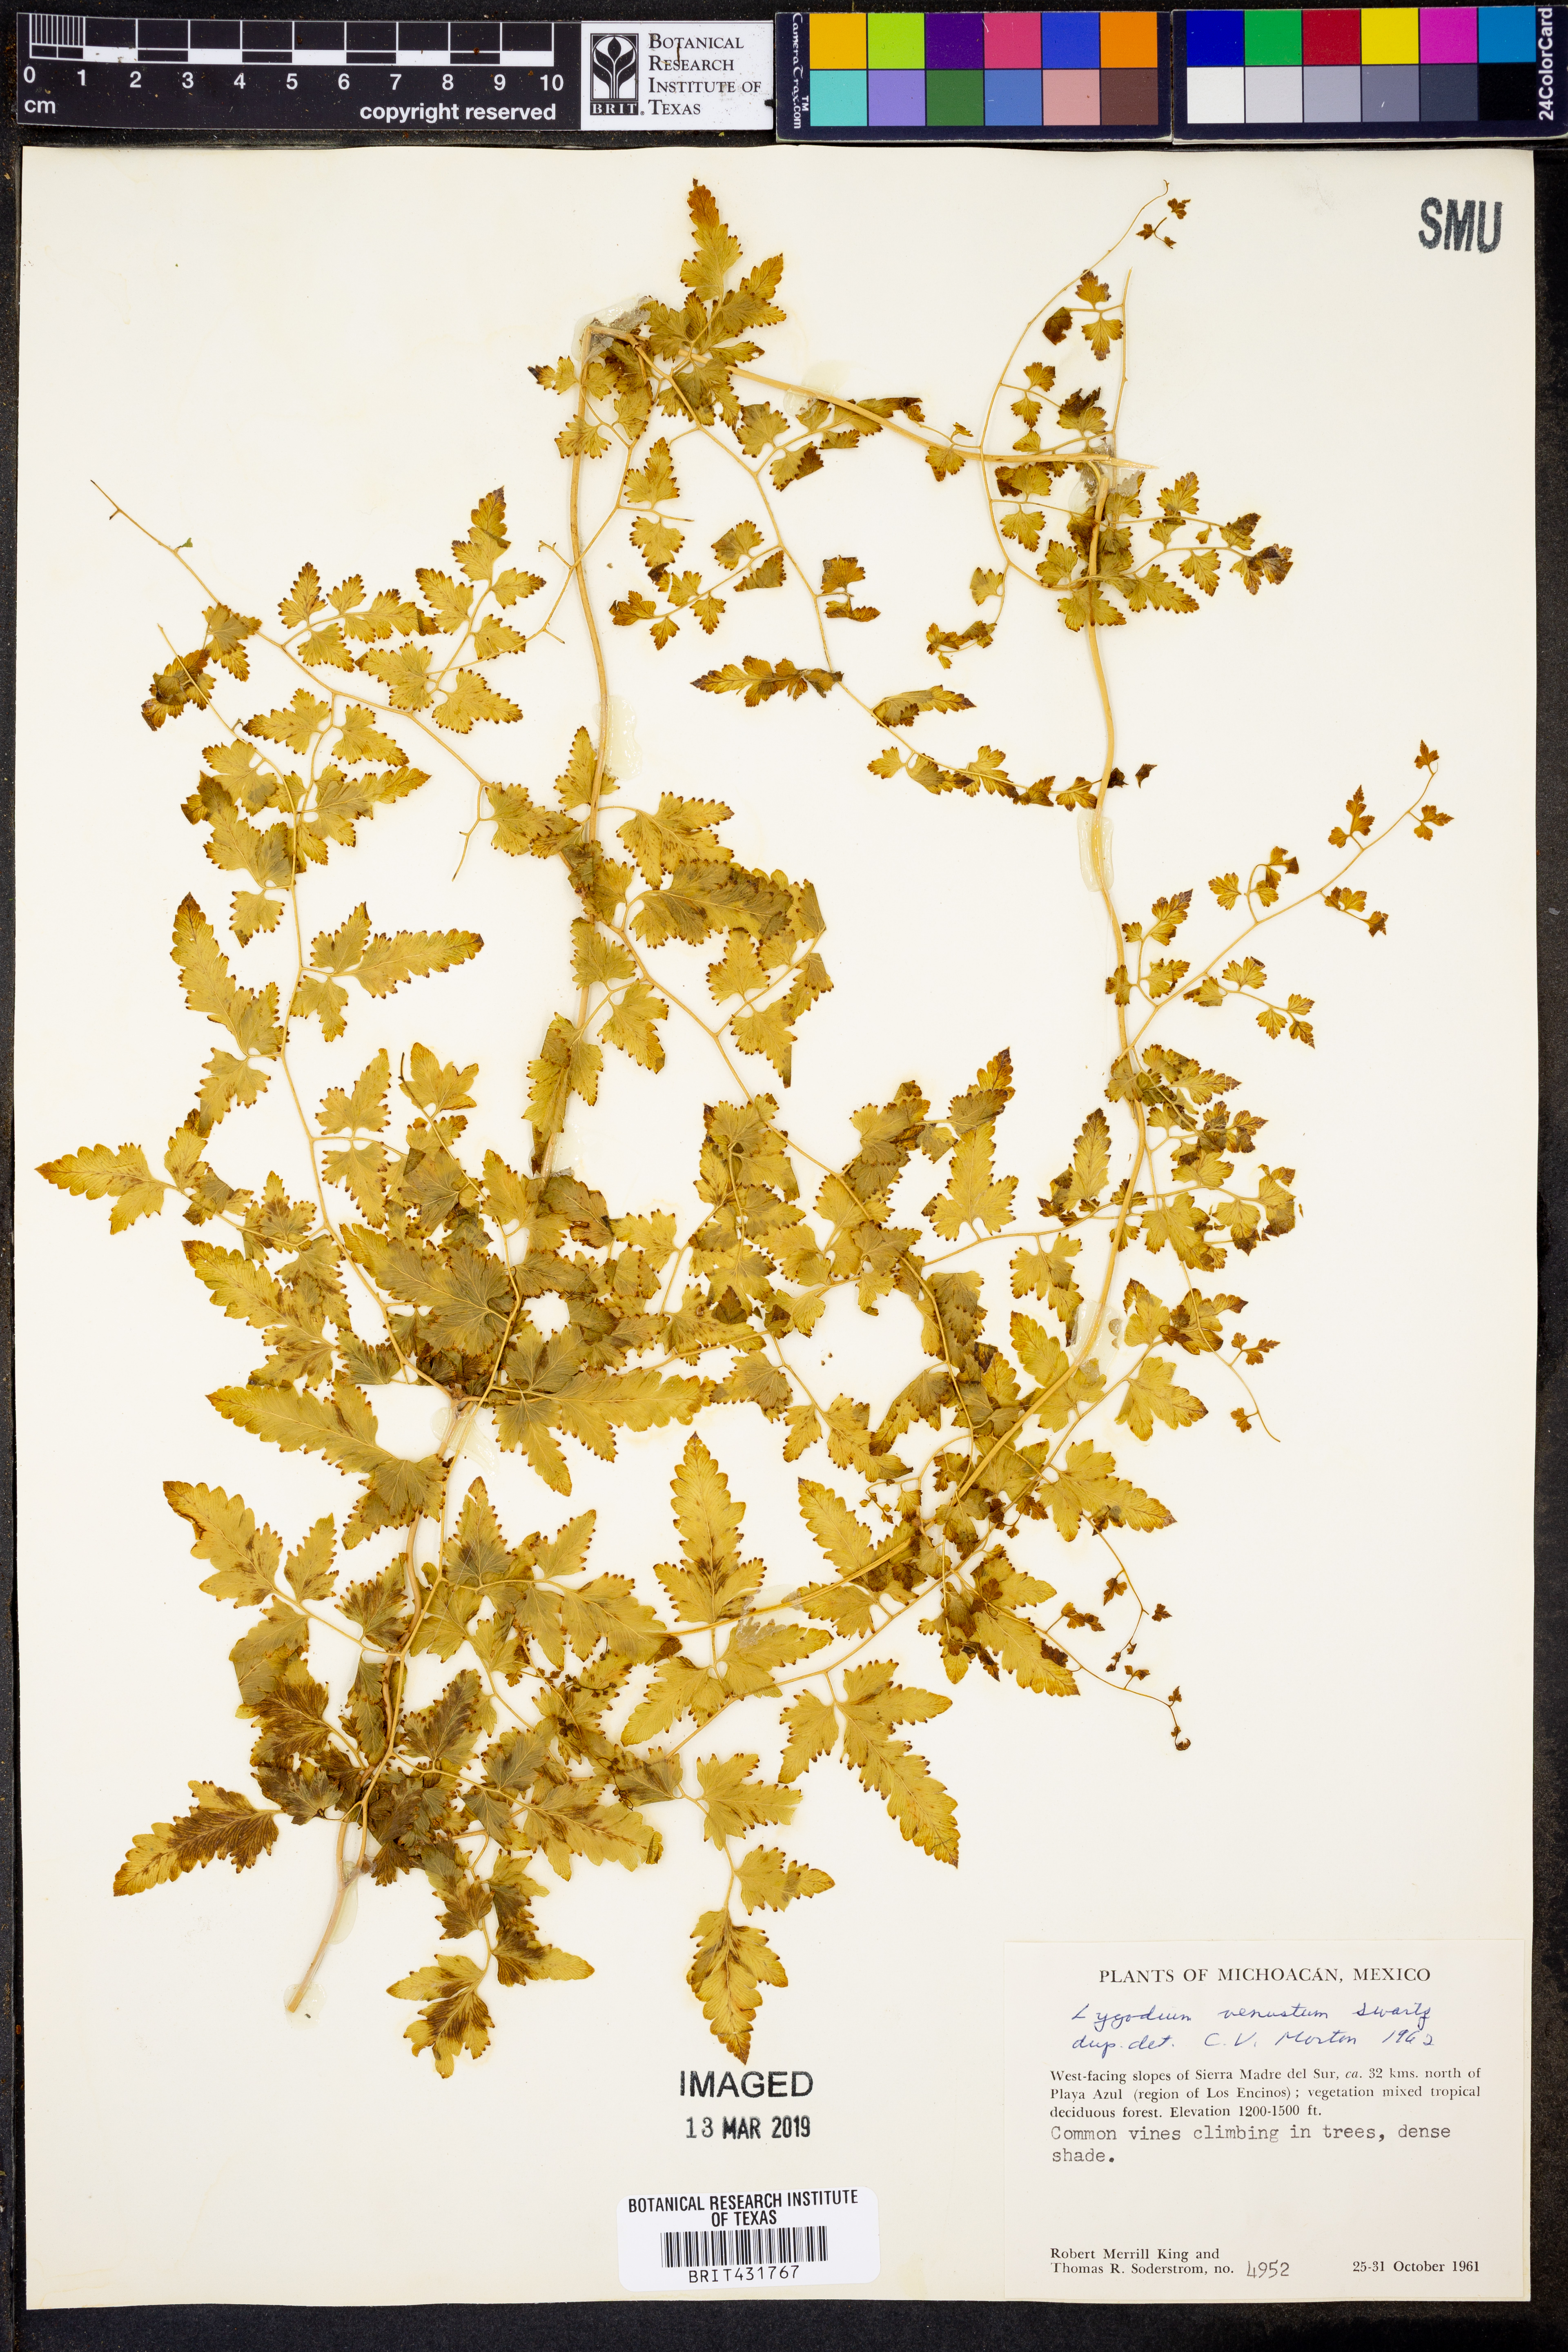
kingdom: Plantae
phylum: Tracheophyta
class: Polypodiopsida
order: Schizaeales
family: Lygodiaceae
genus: Lygodium
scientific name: Lygodium venustum
